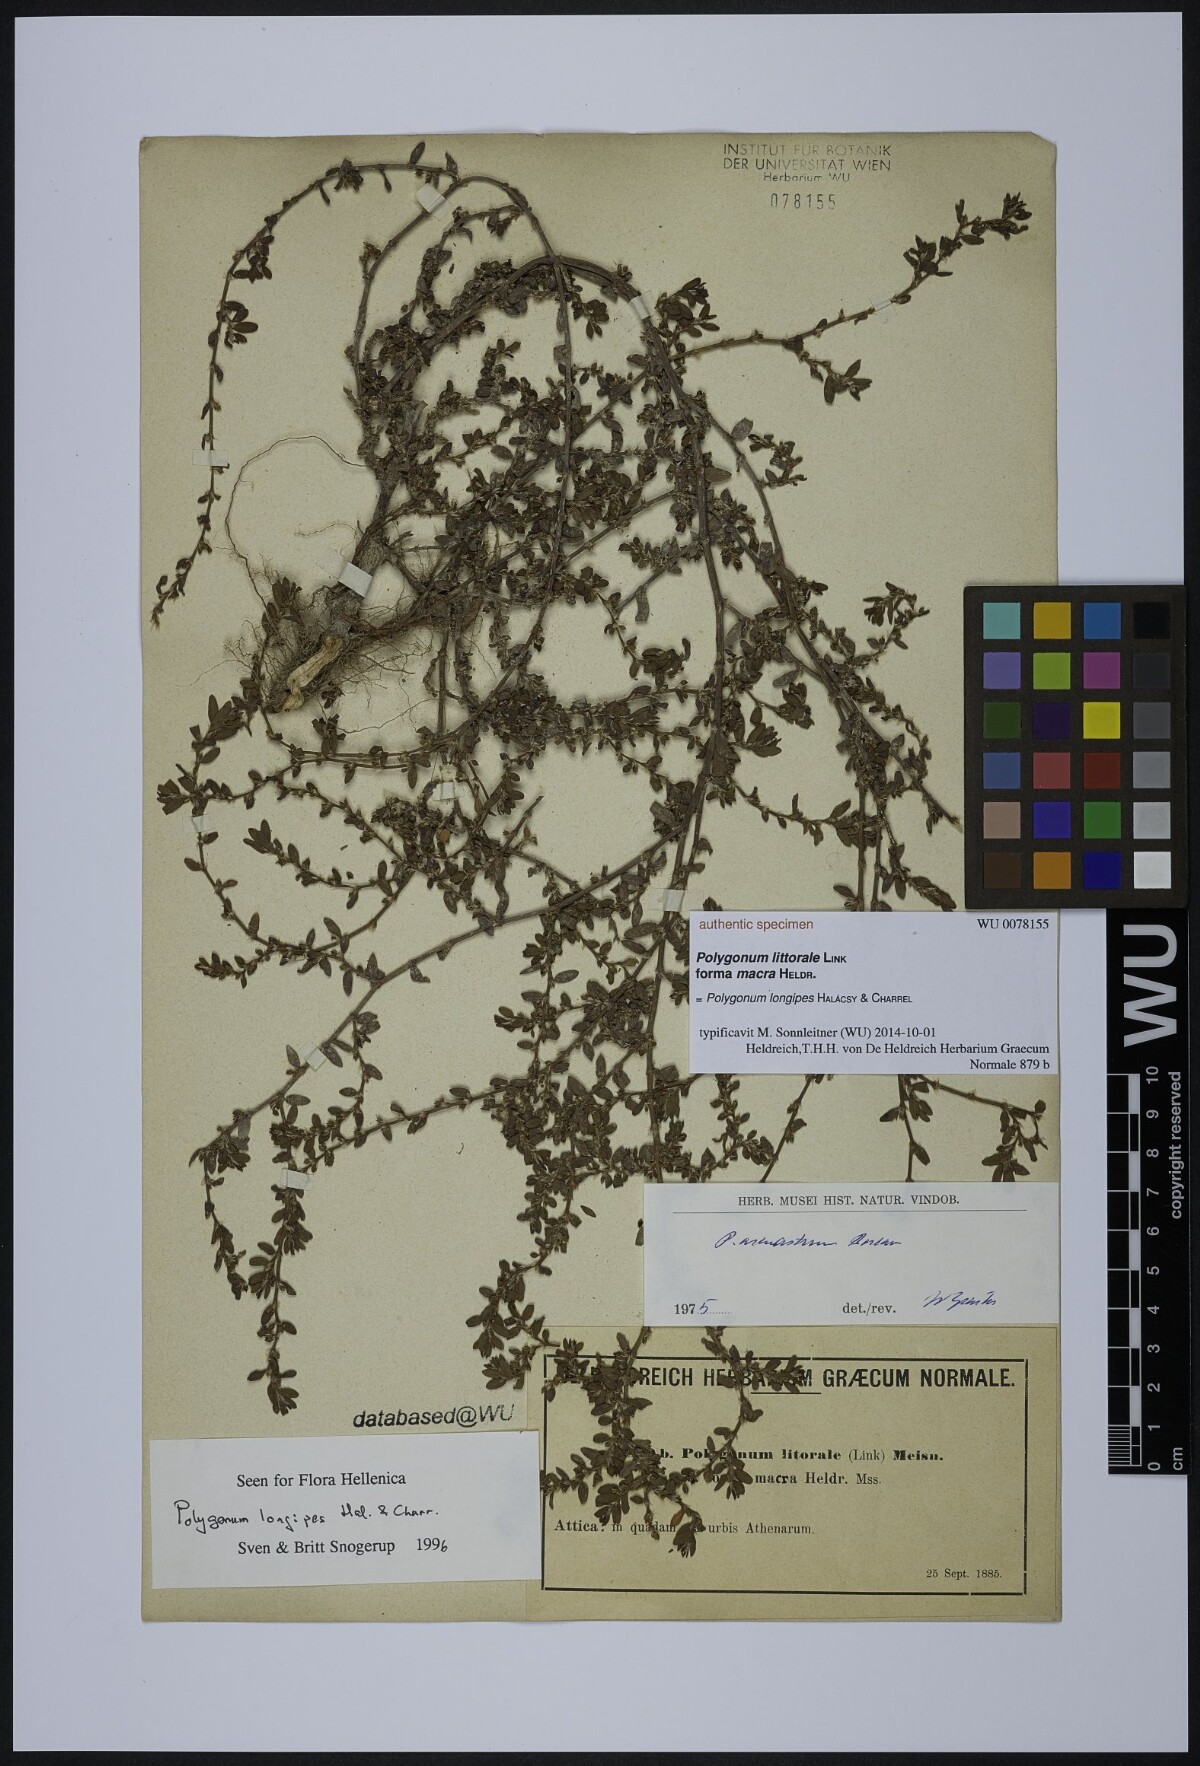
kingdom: Plantae
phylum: Tracheophyta
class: Magnoliopsida
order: Caryophyllales
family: Polygonaceae
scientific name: Polygonaceae
